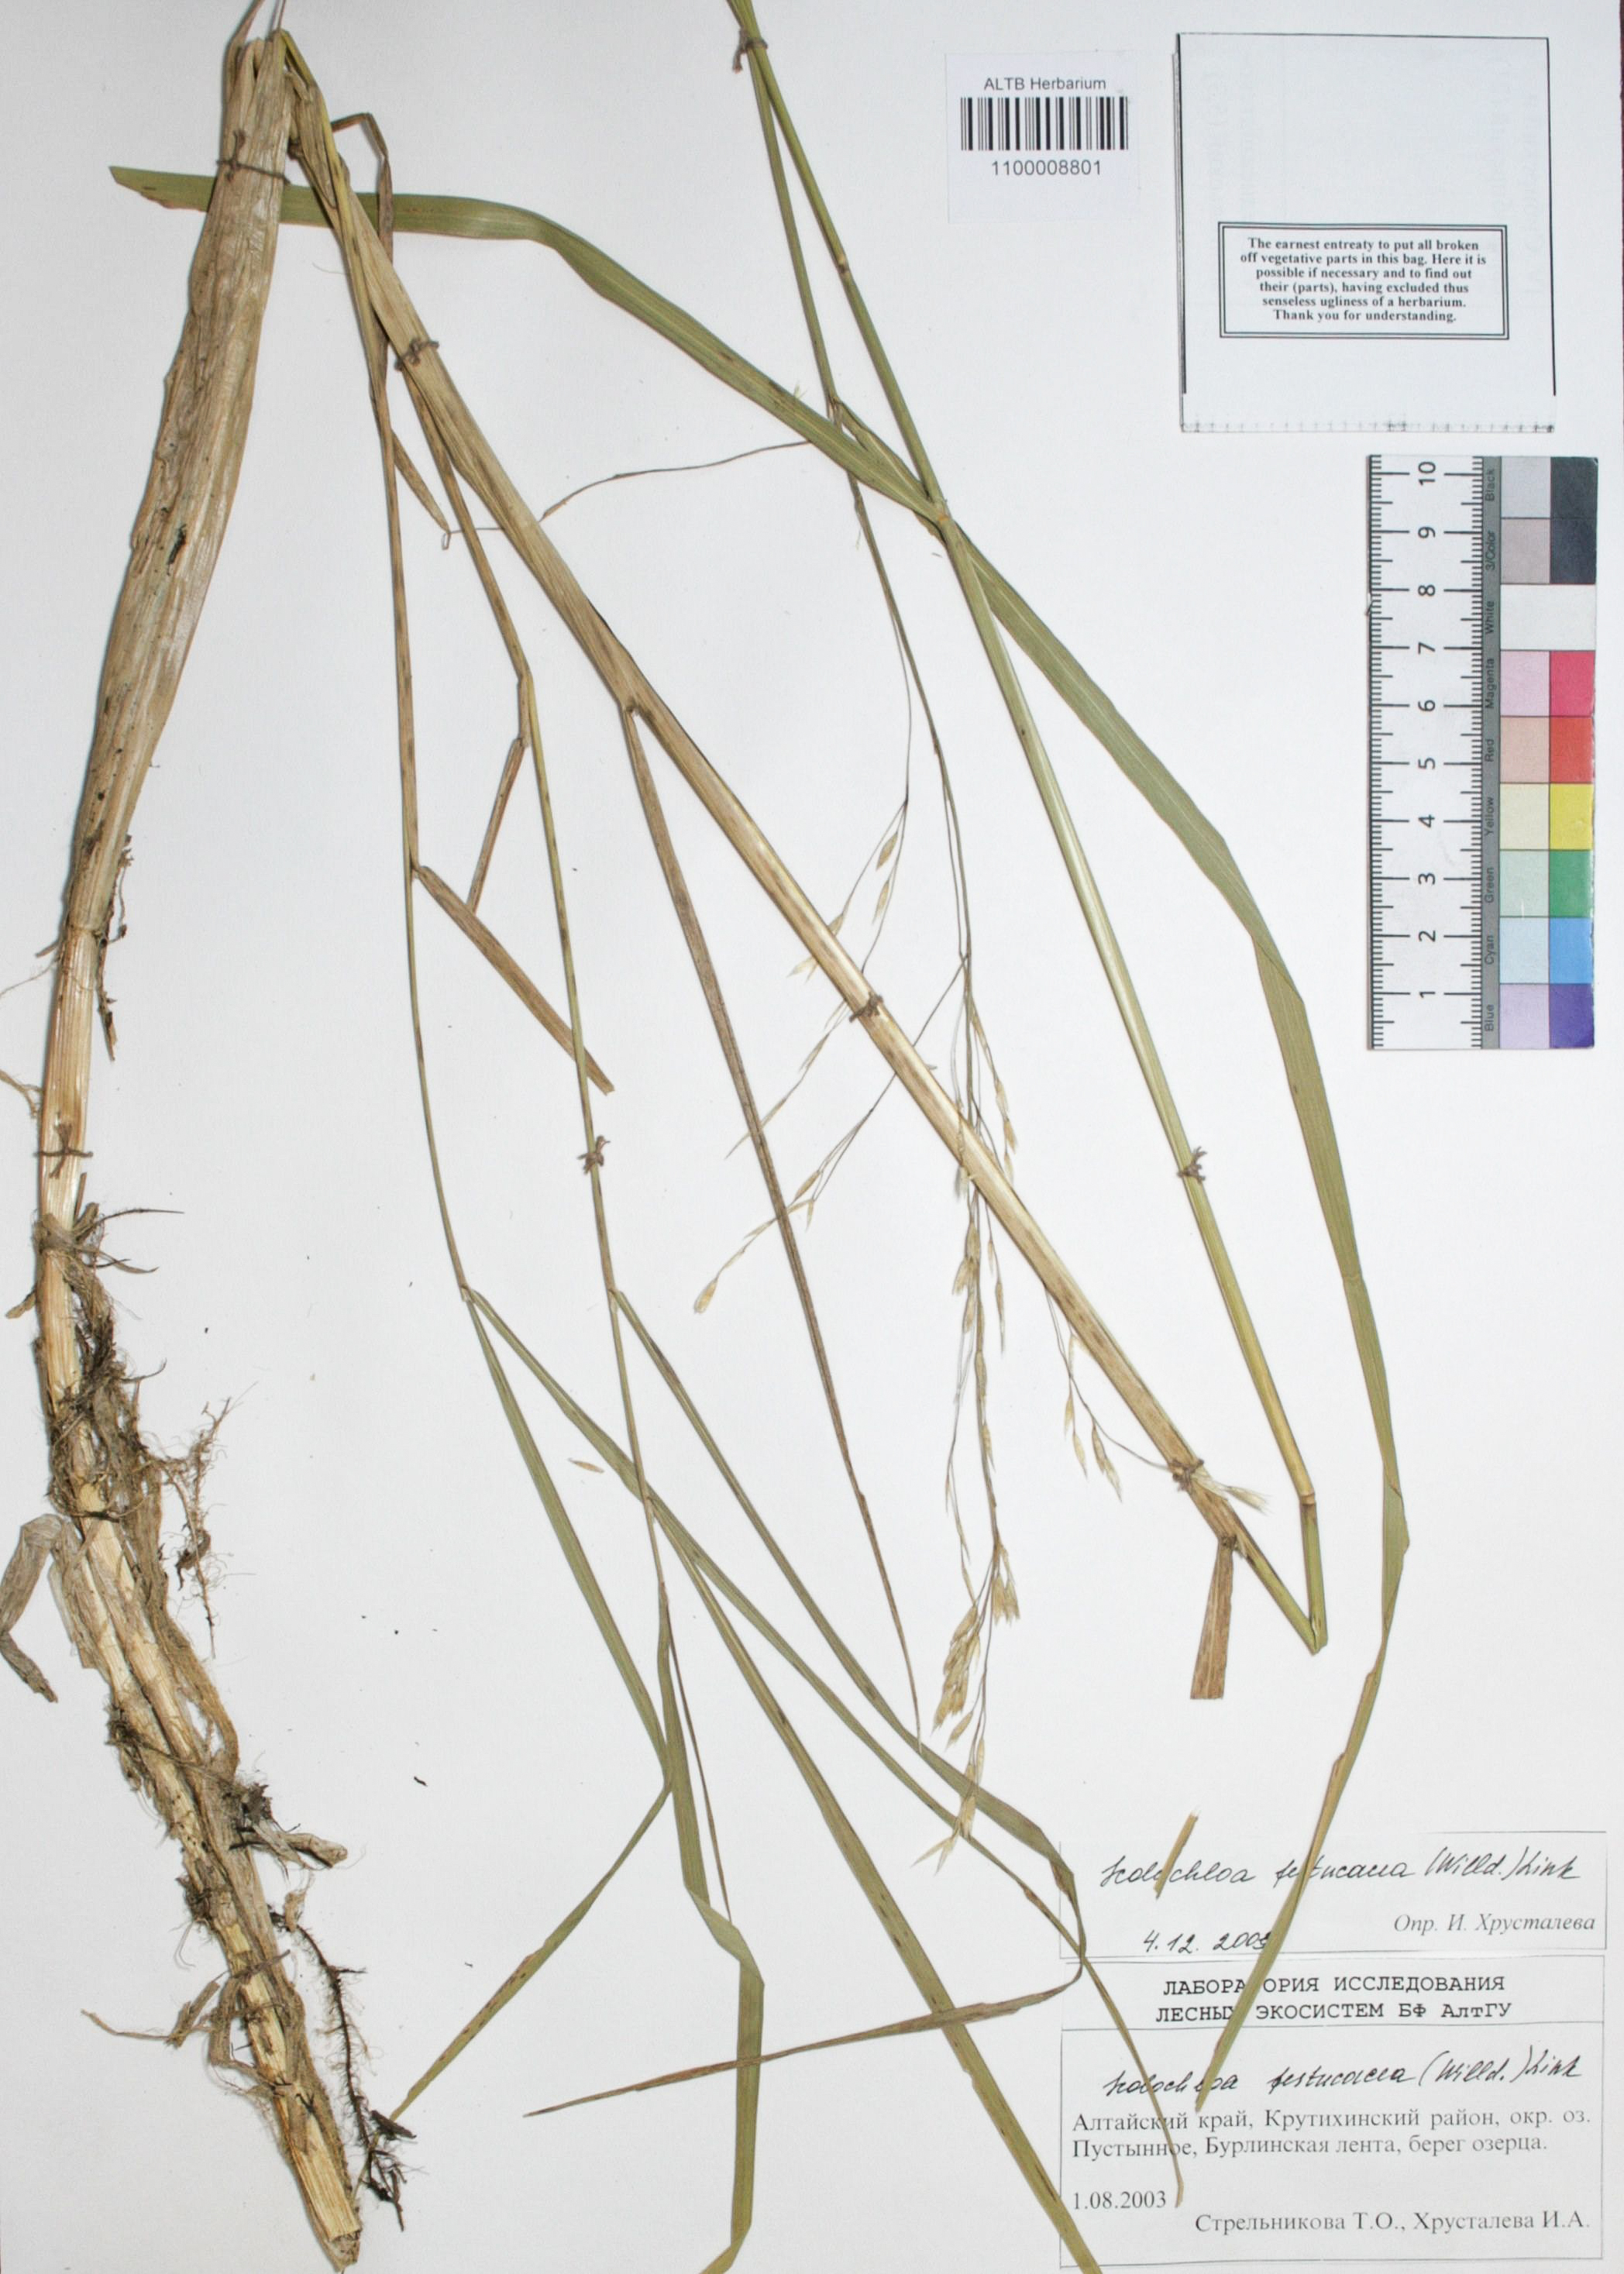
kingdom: Plantae
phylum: Tracheophyta
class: Liliopsida
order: Poales
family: Poaceae
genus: Scolochloa
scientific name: Scolochloa festucacea
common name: Common rivergrass
